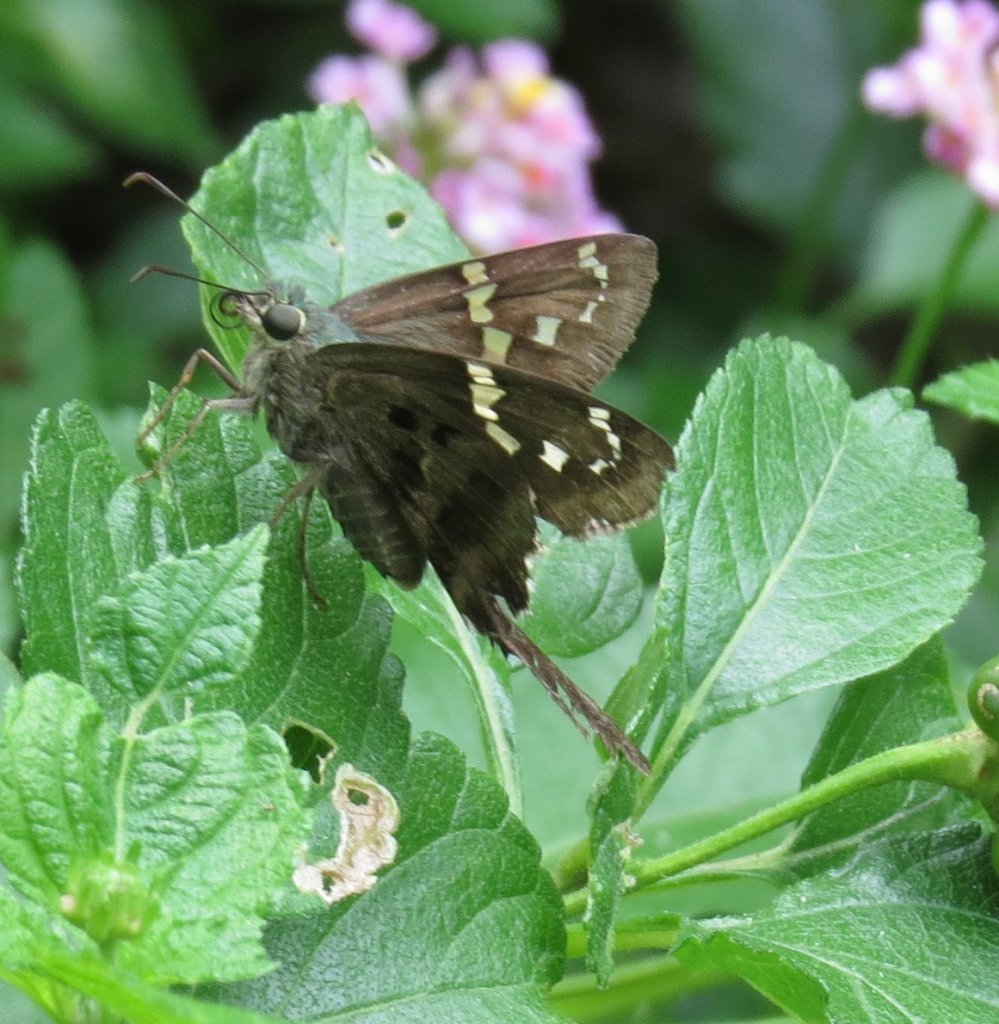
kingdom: Animalia
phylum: Arthropoda
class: Insecta
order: Lepidoptera
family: Hesperiidae
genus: Urbanus
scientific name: Urbanus proteus
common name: Long-tailed Skipper
